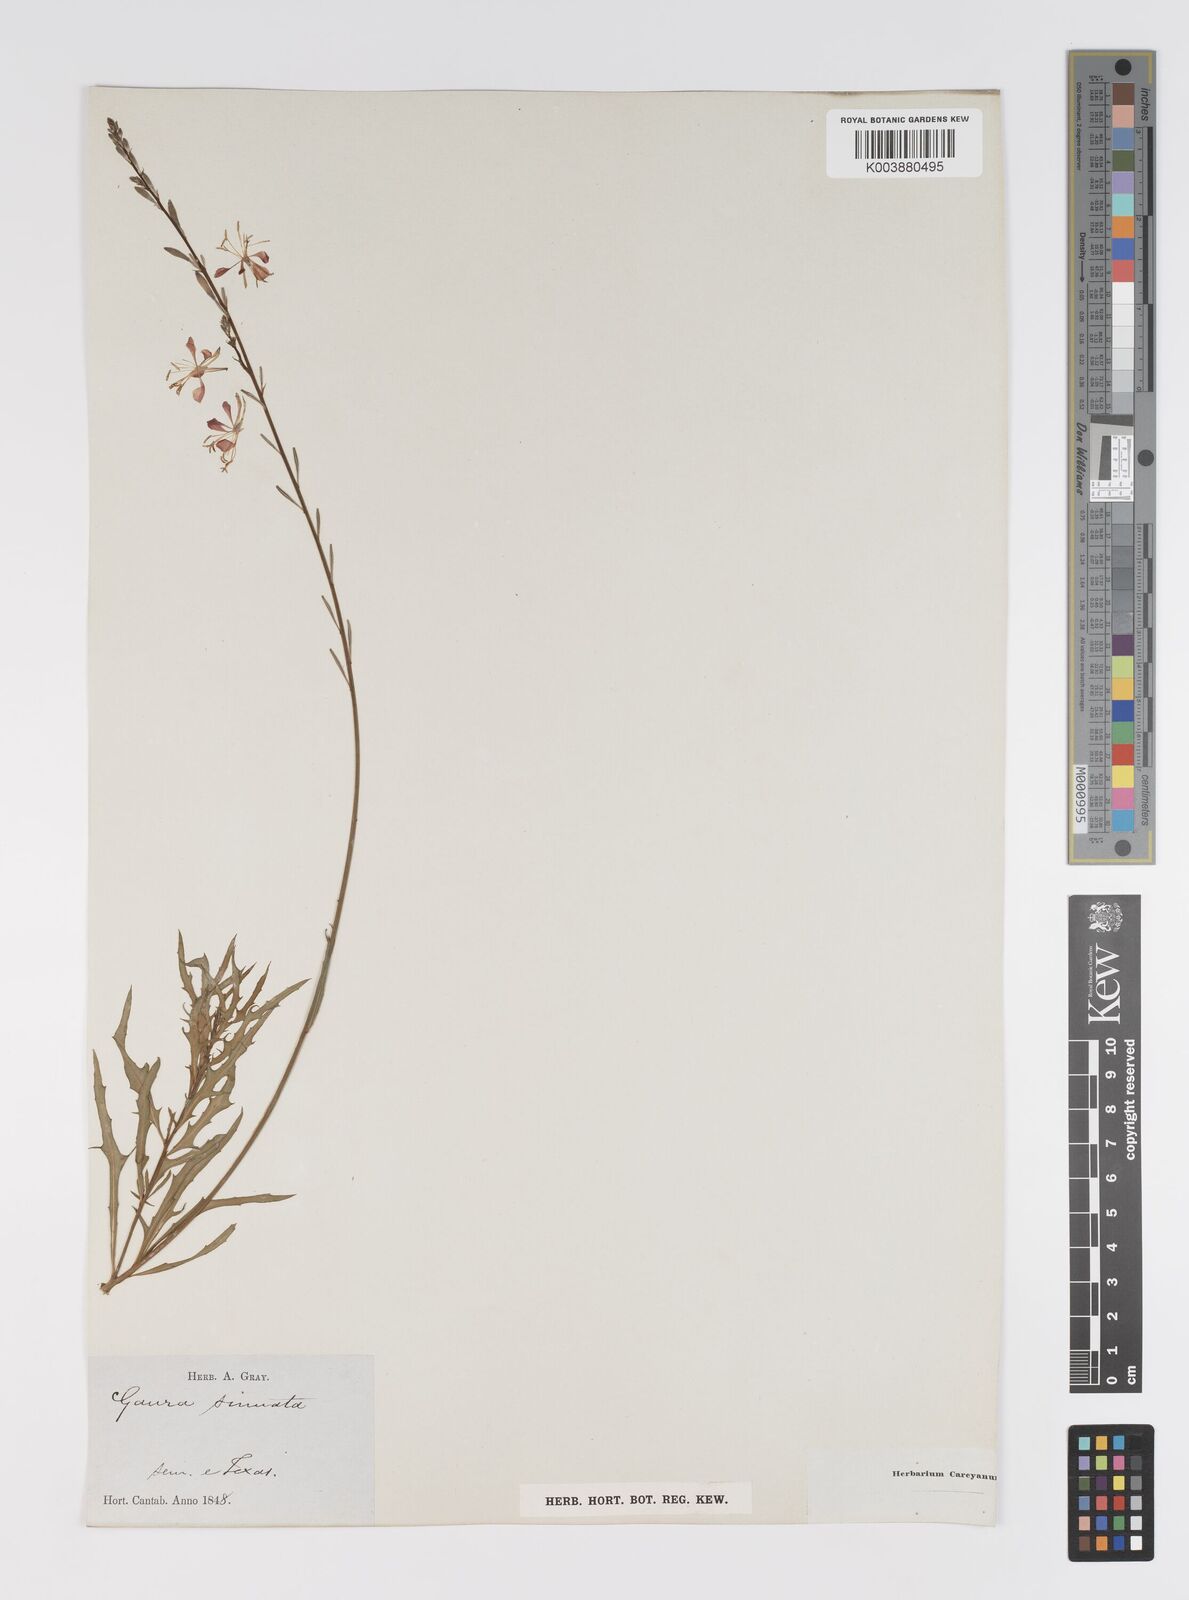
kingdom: Plantae
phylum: Tracheophyta
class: Magnoliopsida
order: Myrtales
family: Onagraceae
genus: Oenothera
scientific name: Oenothera sinuosa
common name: Wavyleaf beeblossom
